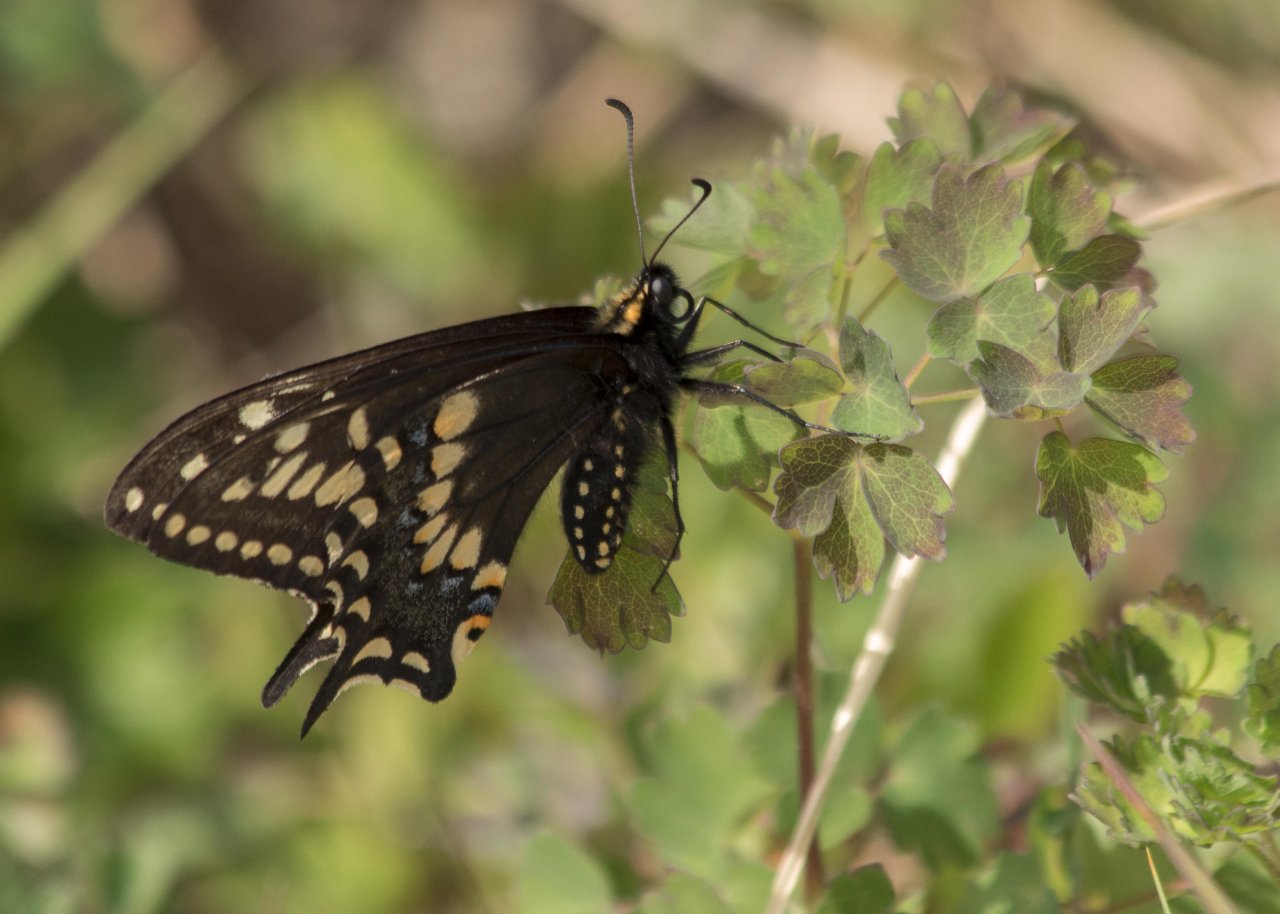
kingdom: Animalia
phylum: Arthropoda
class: Insecta
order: Lepidoptera
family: Papilionidae
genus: Papilio
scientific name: Papilio brevicauda
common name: Short-tailed Swallowtail
